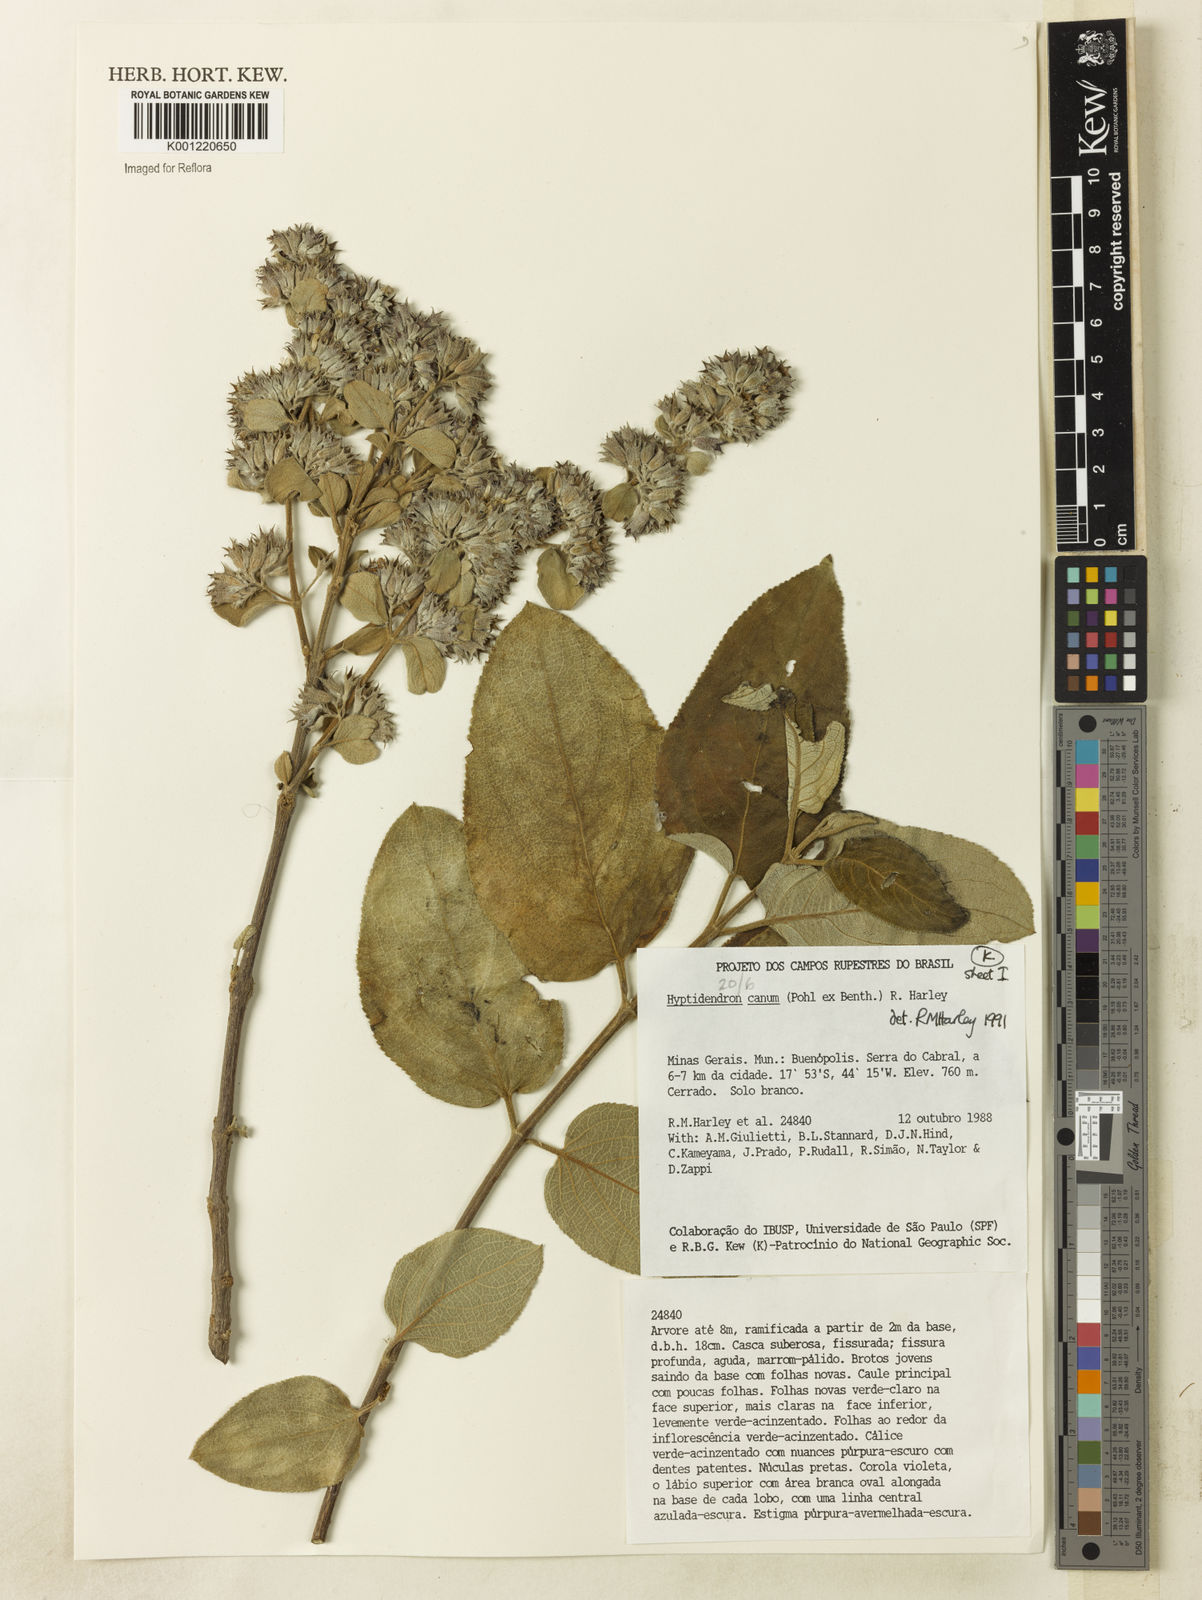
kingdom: Plantae
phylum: Tracheophyta
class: Magnoliopsida
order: Lamiales
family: Lamiaceae
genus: Hyptidendron
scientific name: Hyptidendron canum
